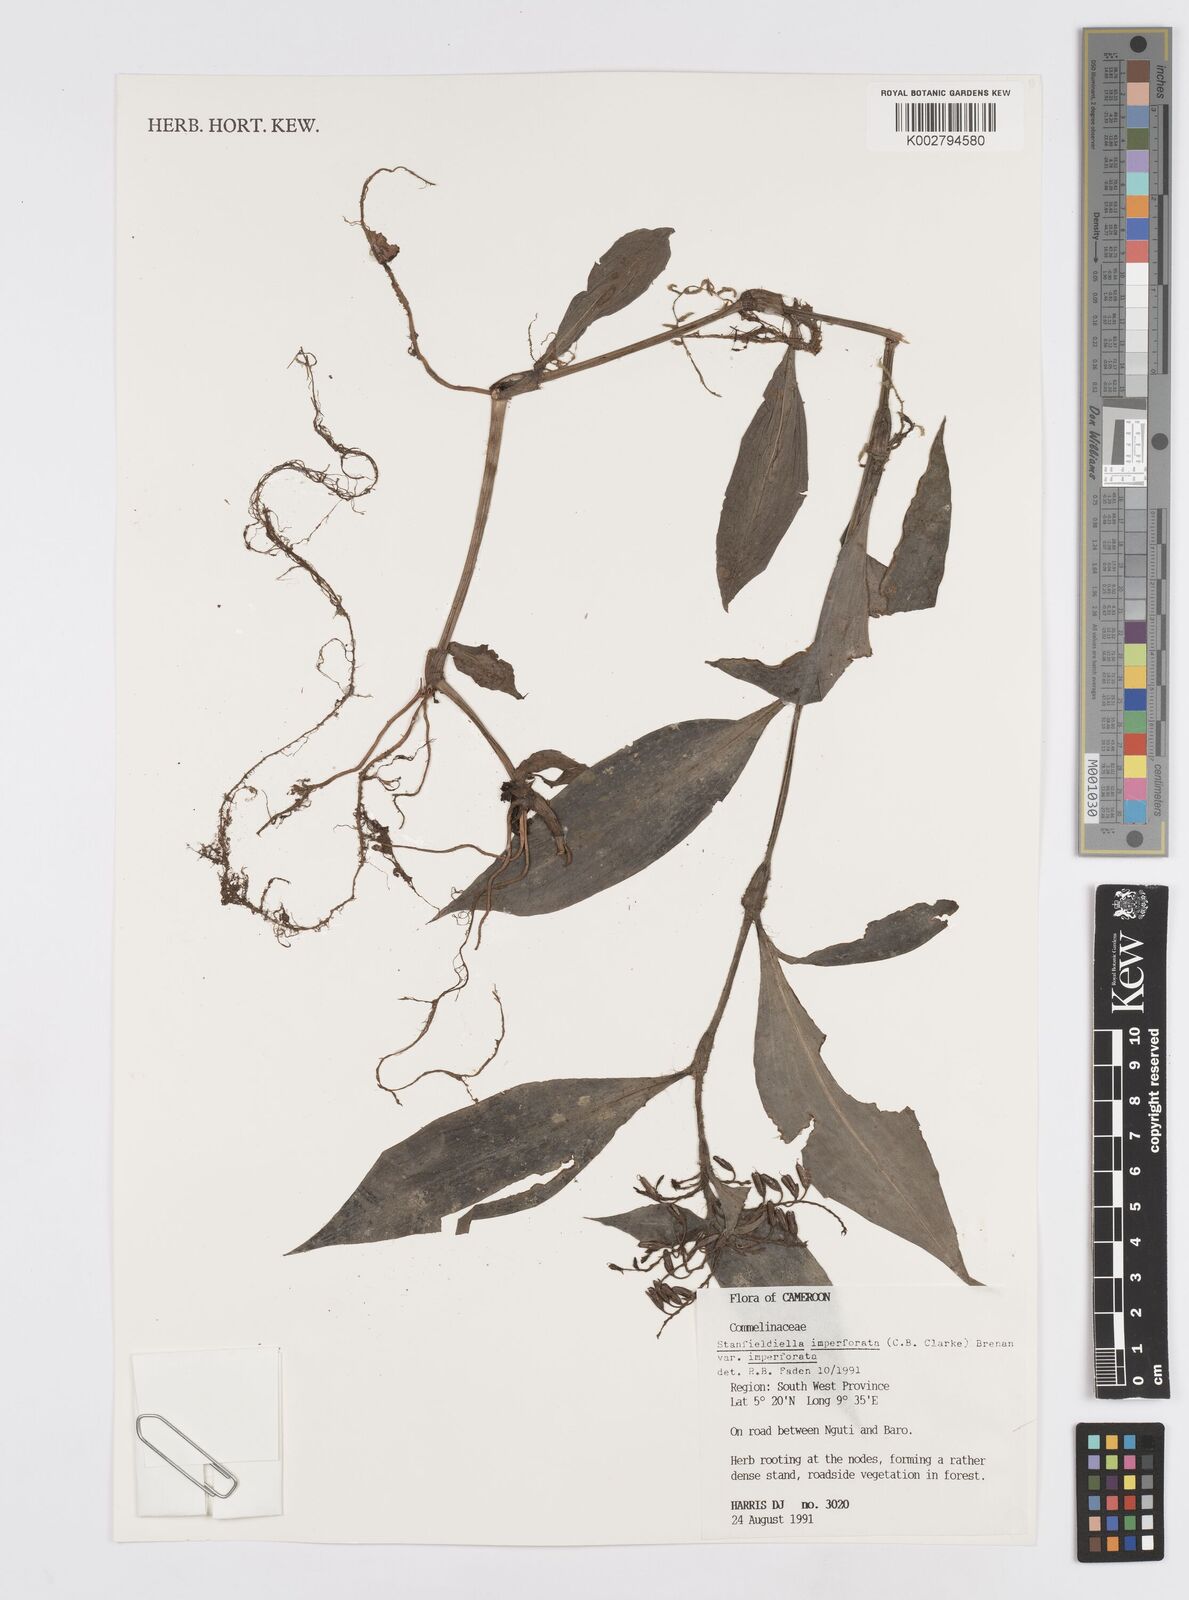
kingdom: Plantae
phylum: Tracheophyta
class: Liliopsida
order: Commelinales
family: Commelinaceae
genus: Stanfieldiella
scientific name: Stanfieldiella imperforata
